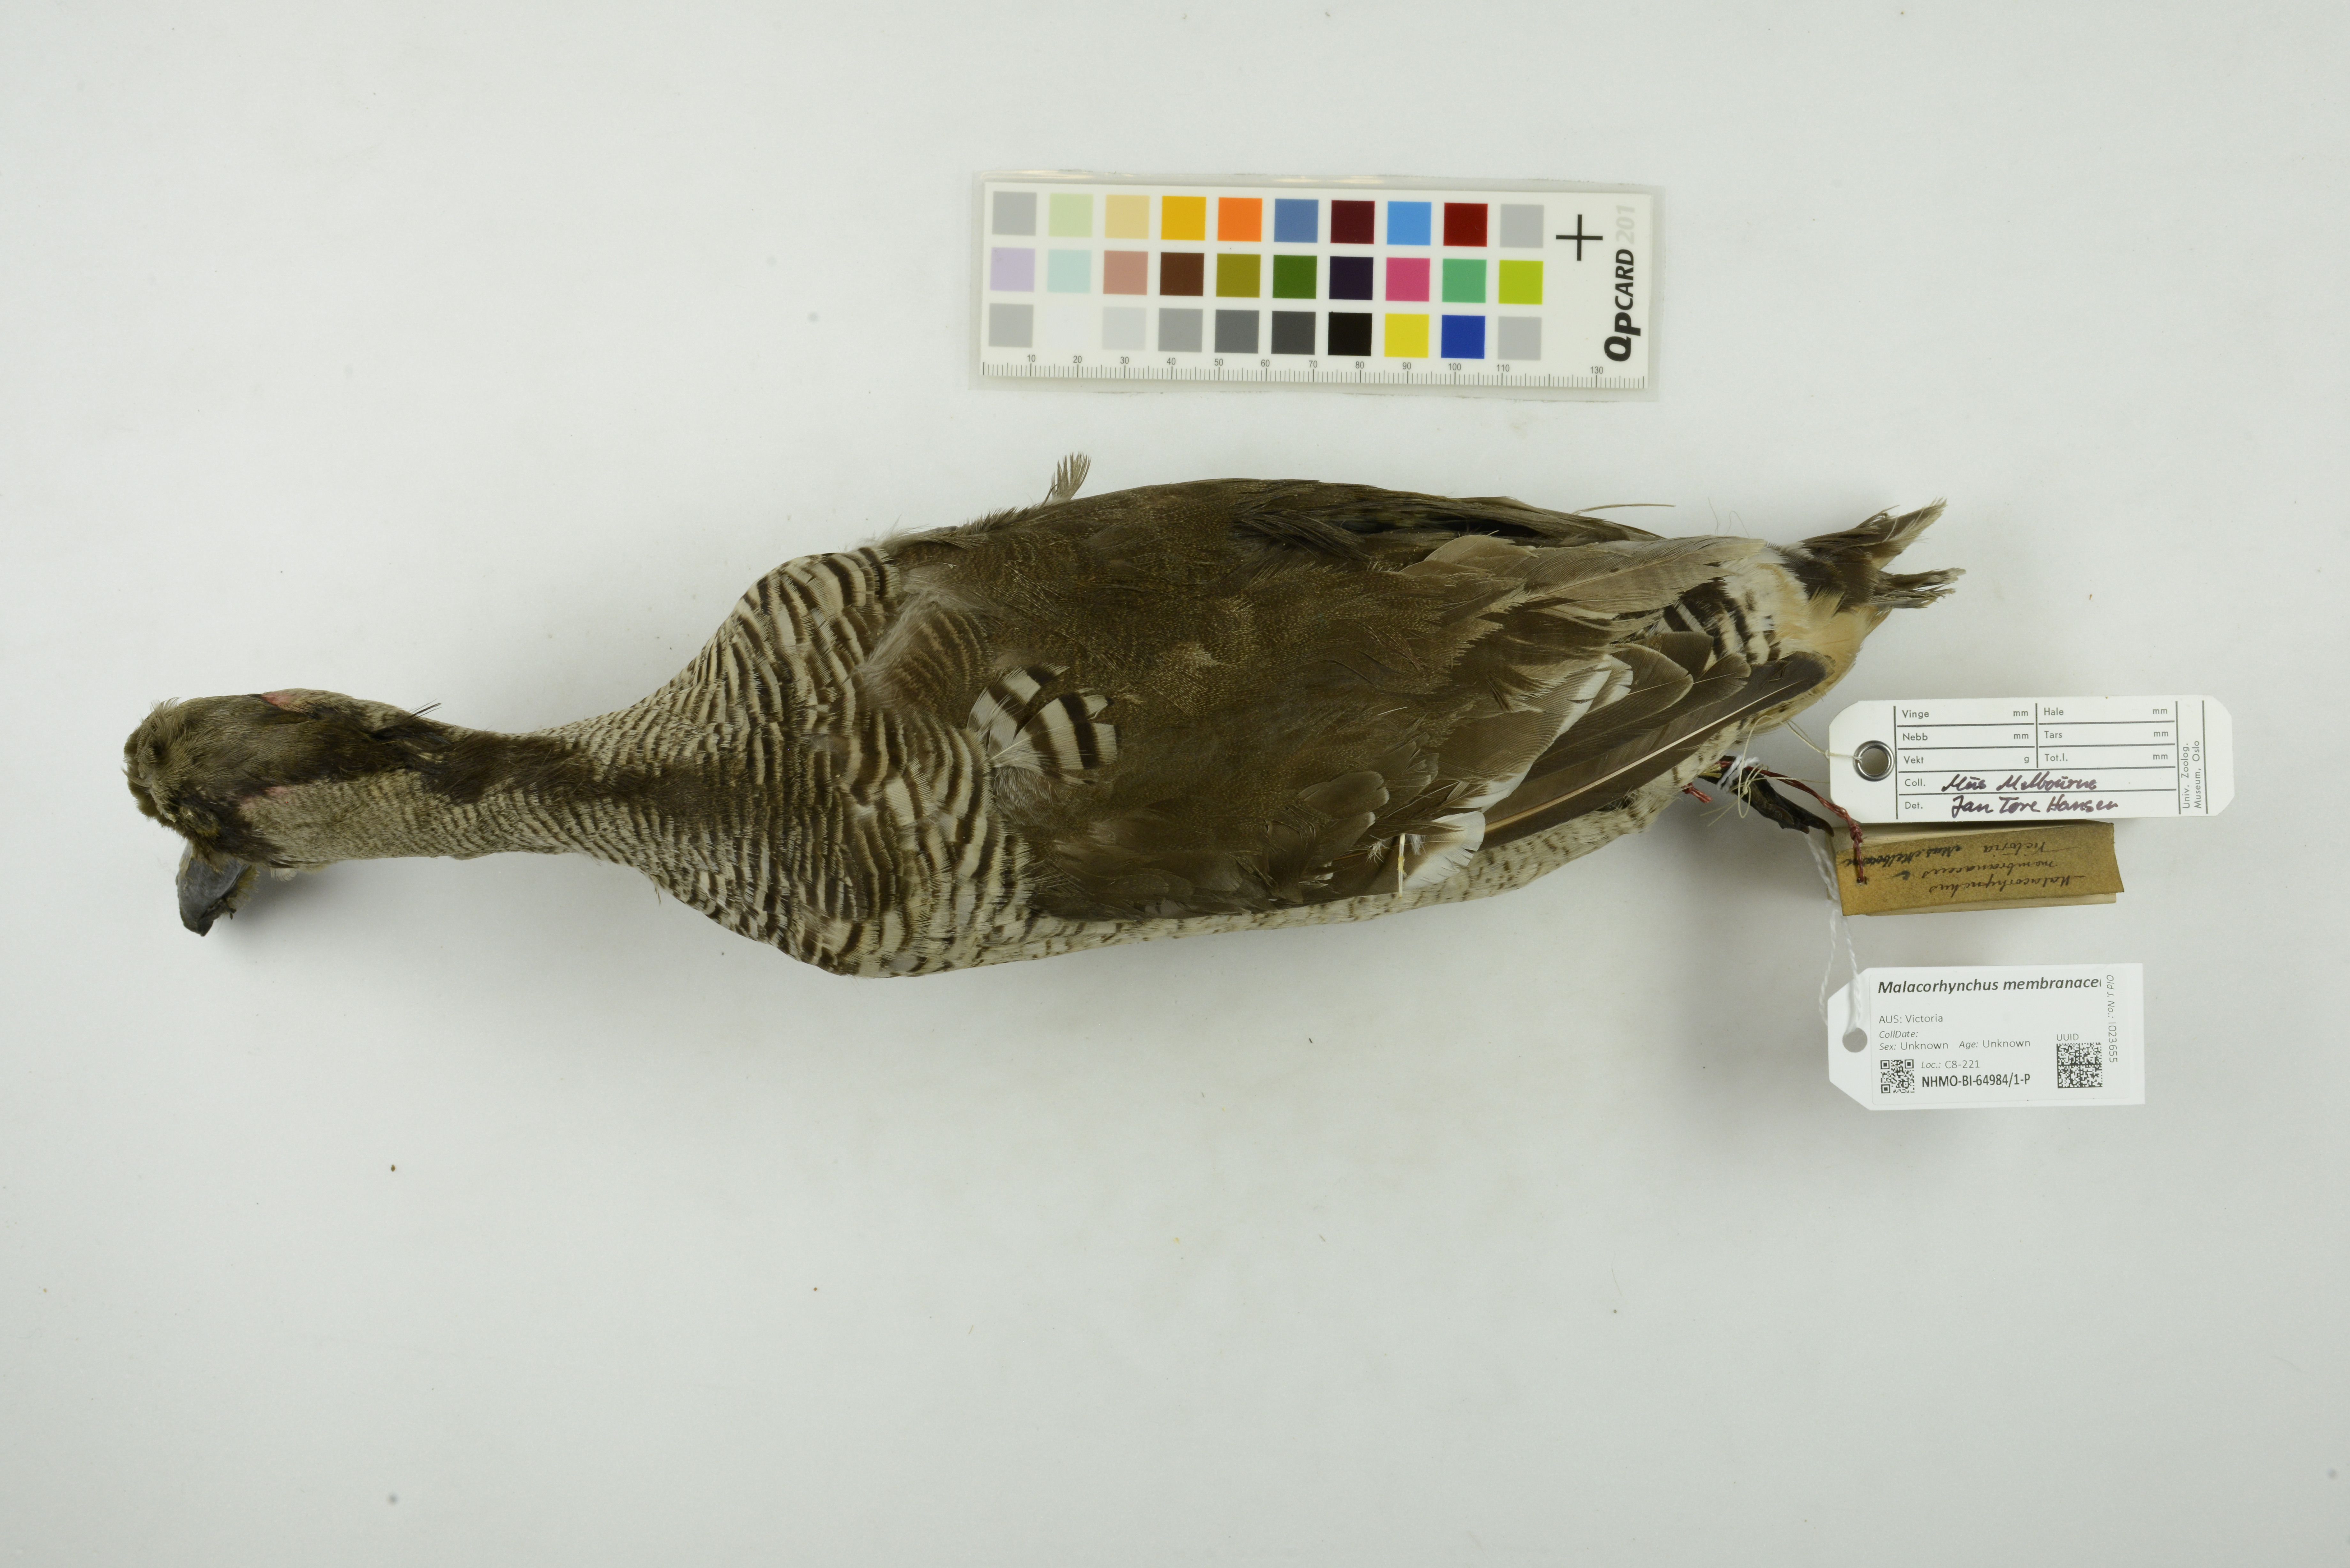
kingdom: Animalia
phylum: Chordata
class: Aves
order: Anseriformes
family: Anatidae
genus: Malacorhynchus
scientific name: Malacorhynchus membranaceus
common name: Pink-eared duck
